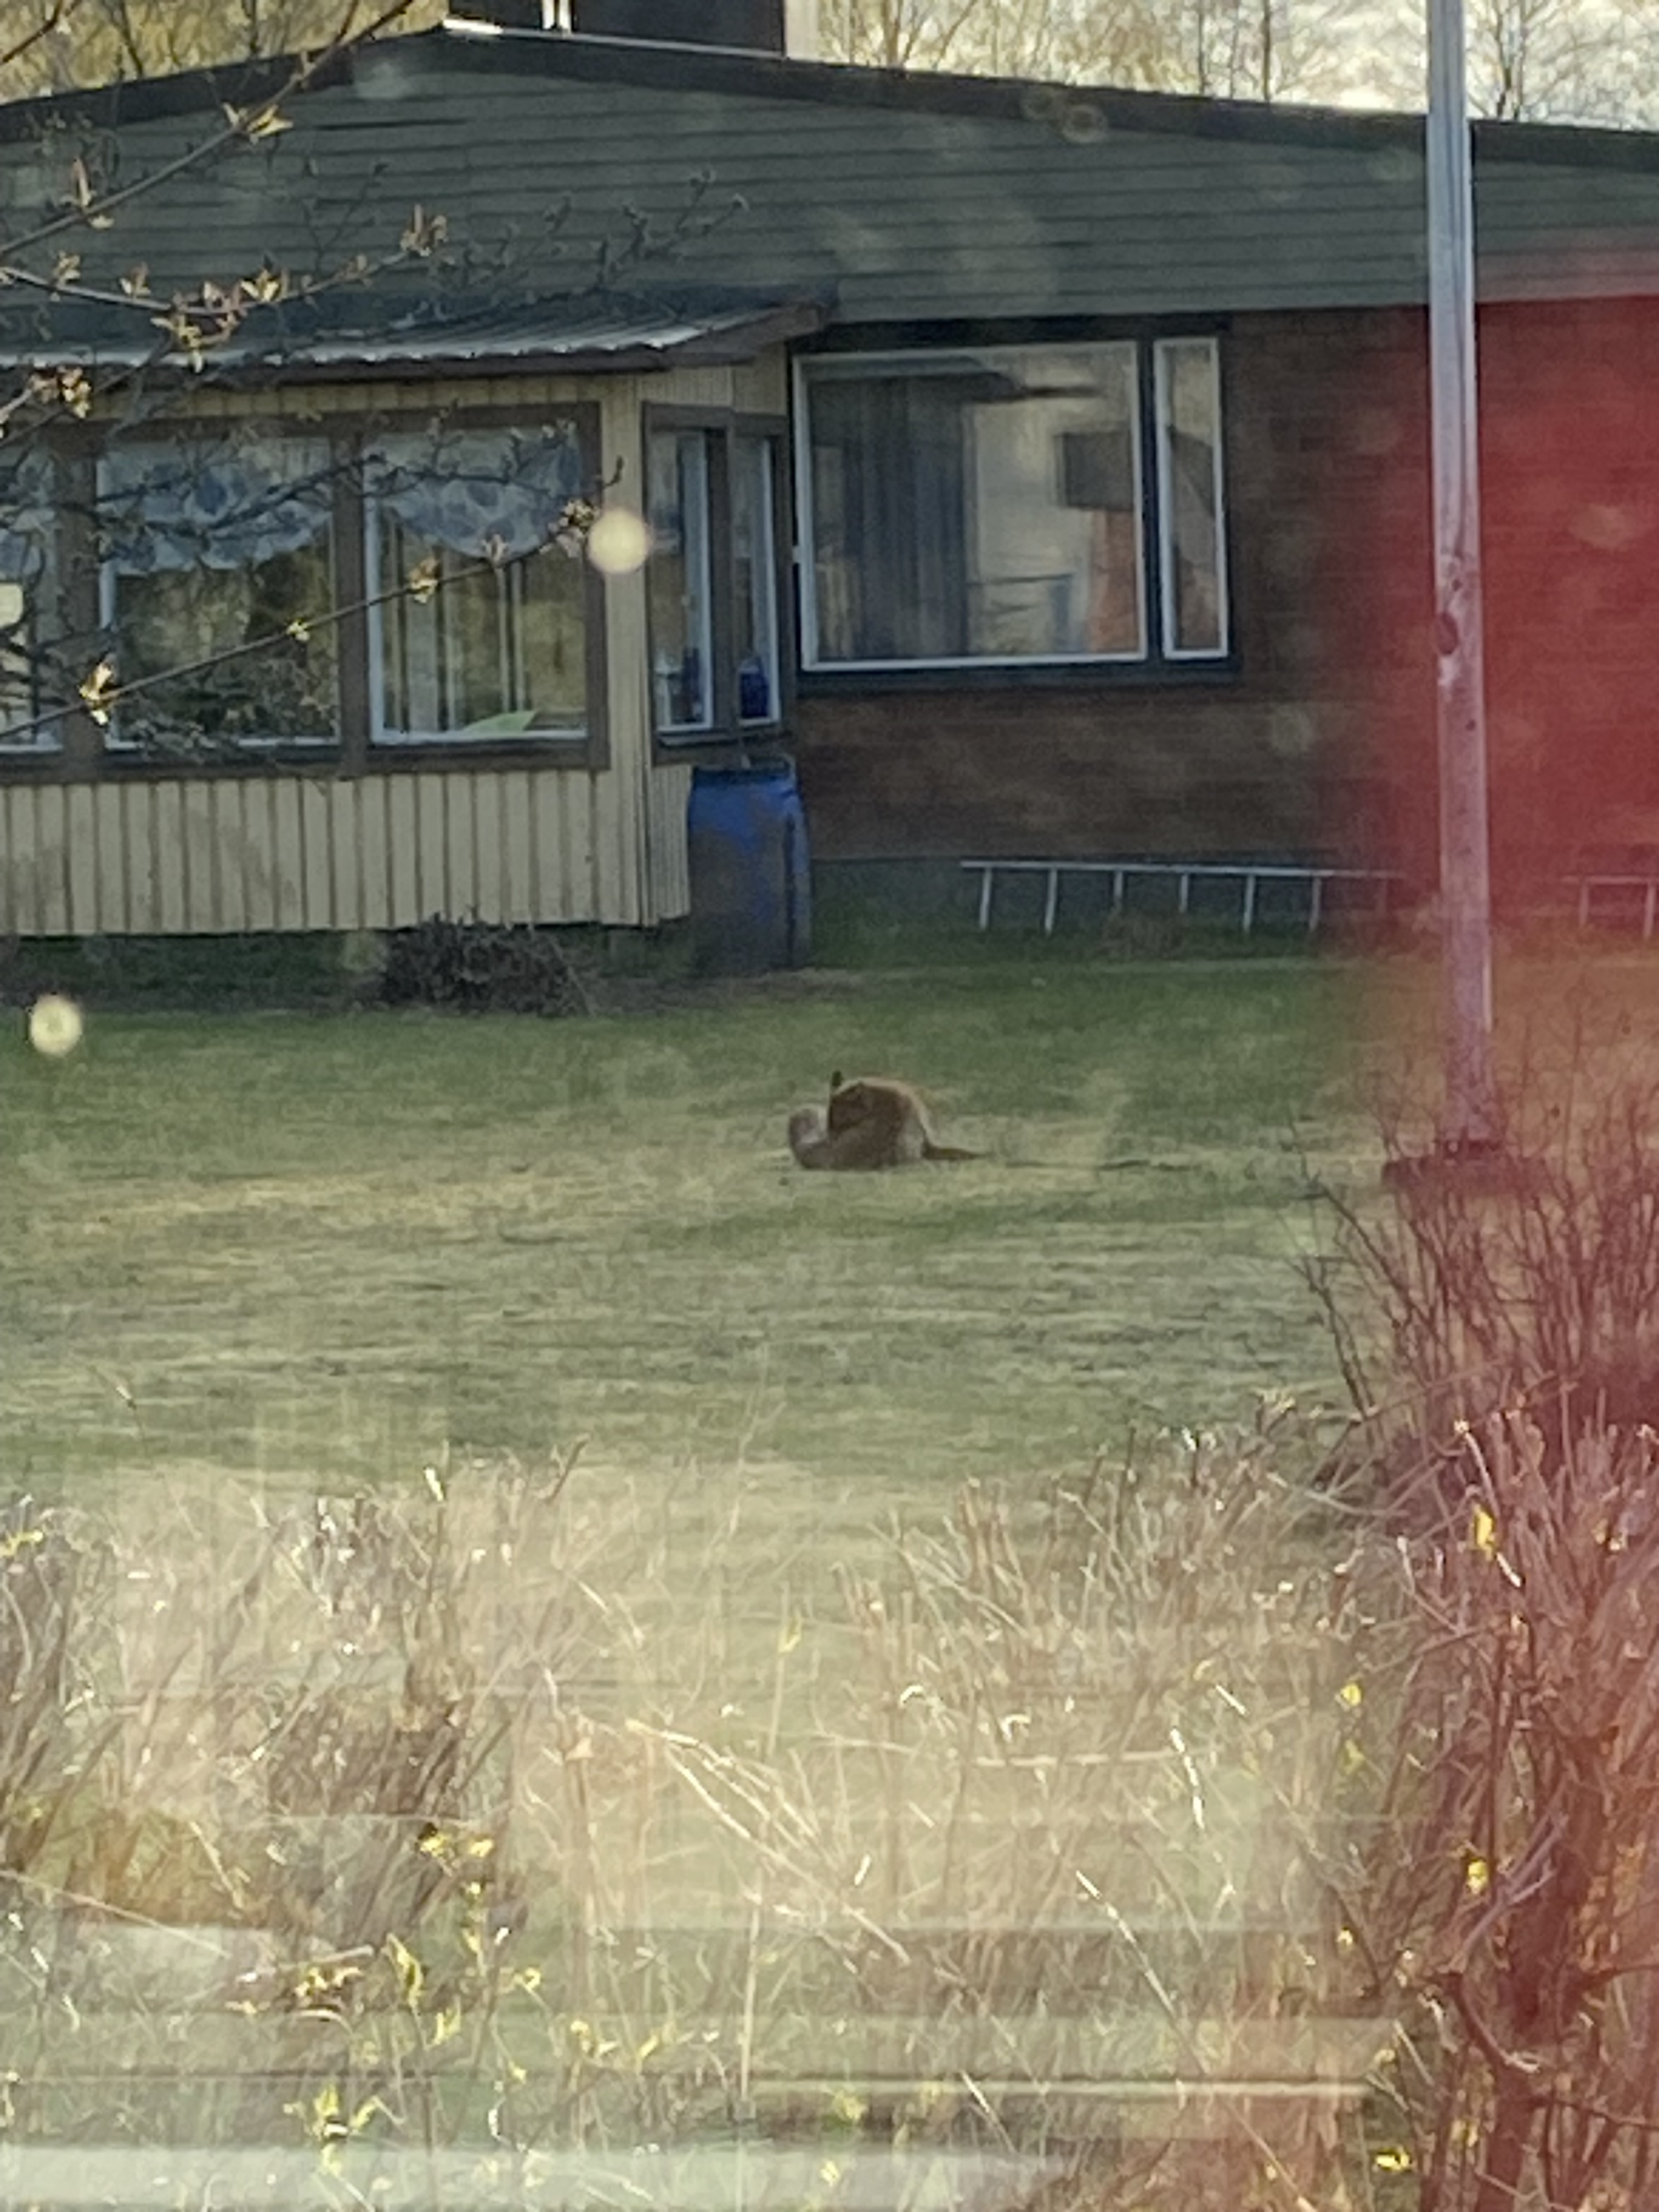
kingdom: Animalia
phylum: Chordata
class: Mammalia
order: Carnivora
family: Canidae
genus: Vulpes
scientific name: Vulpes vulpes
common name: Red fox
